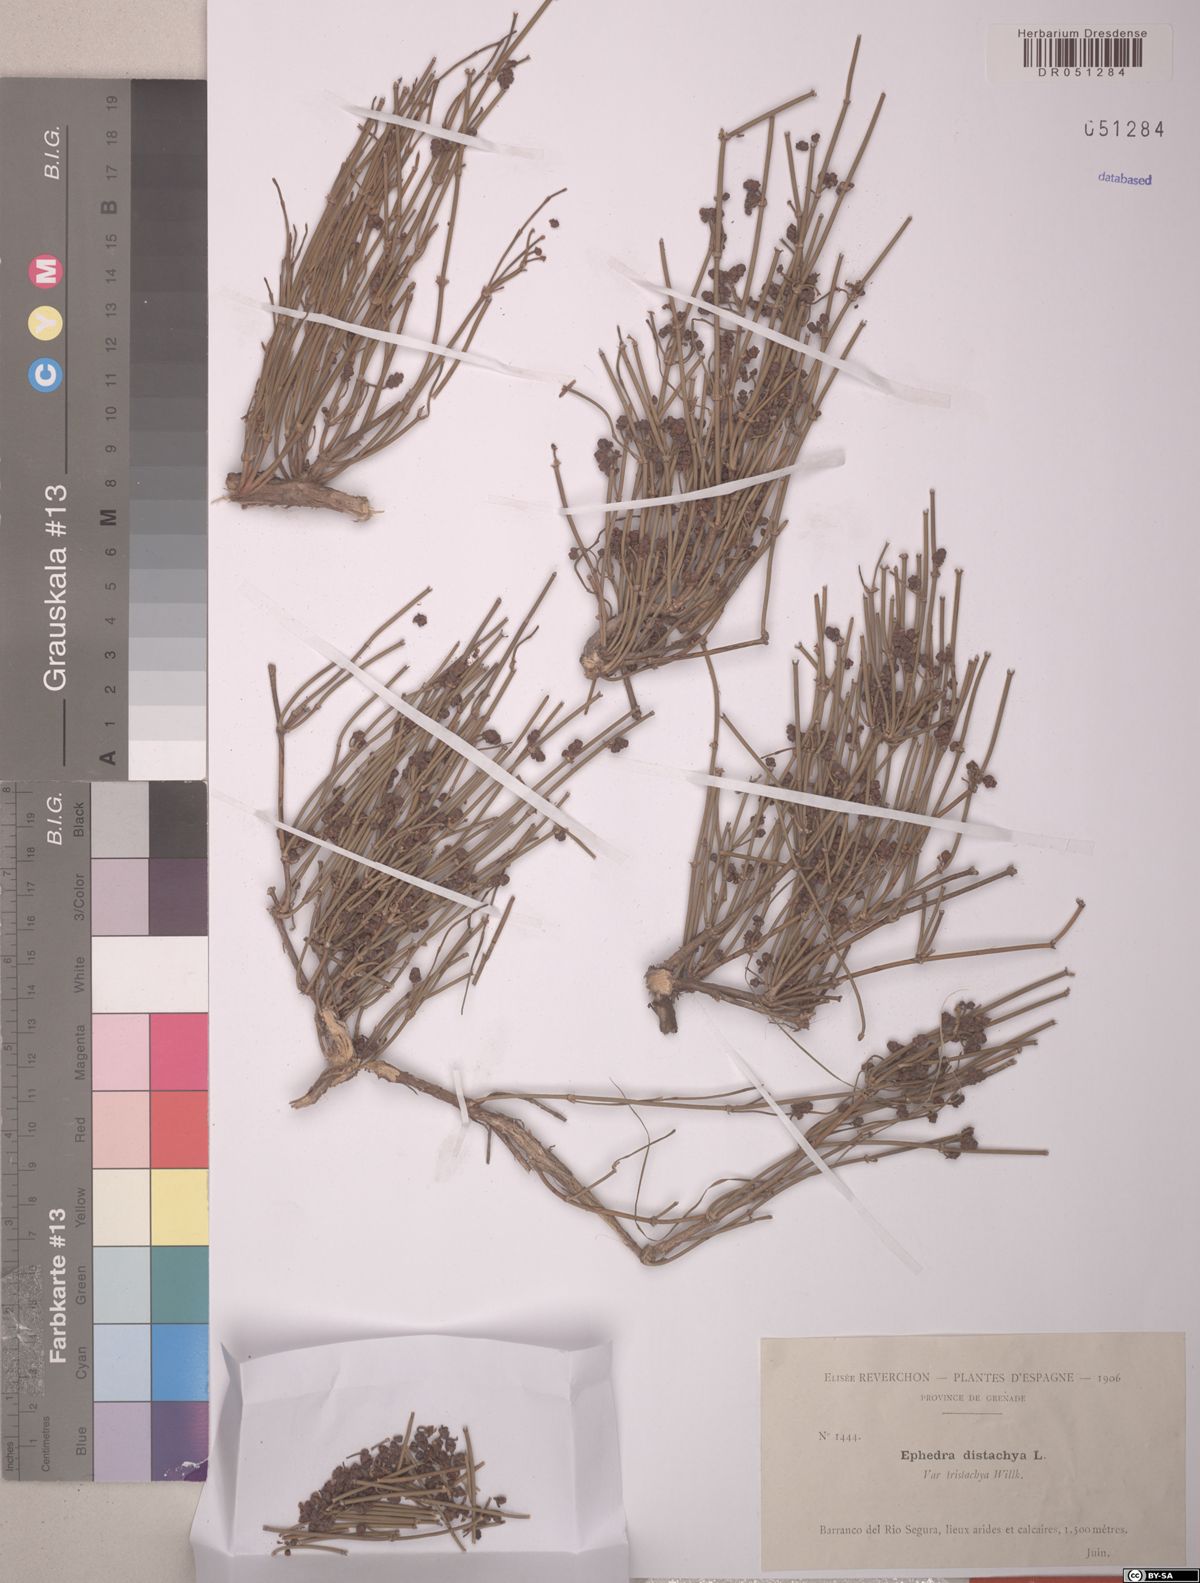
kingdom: Plantae
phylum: Tracheophyta
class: Gnetopsida
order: Ephedrales
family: Ephedraceae
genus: Ephedra
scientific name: Ephedra distachya
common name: Sea grape
